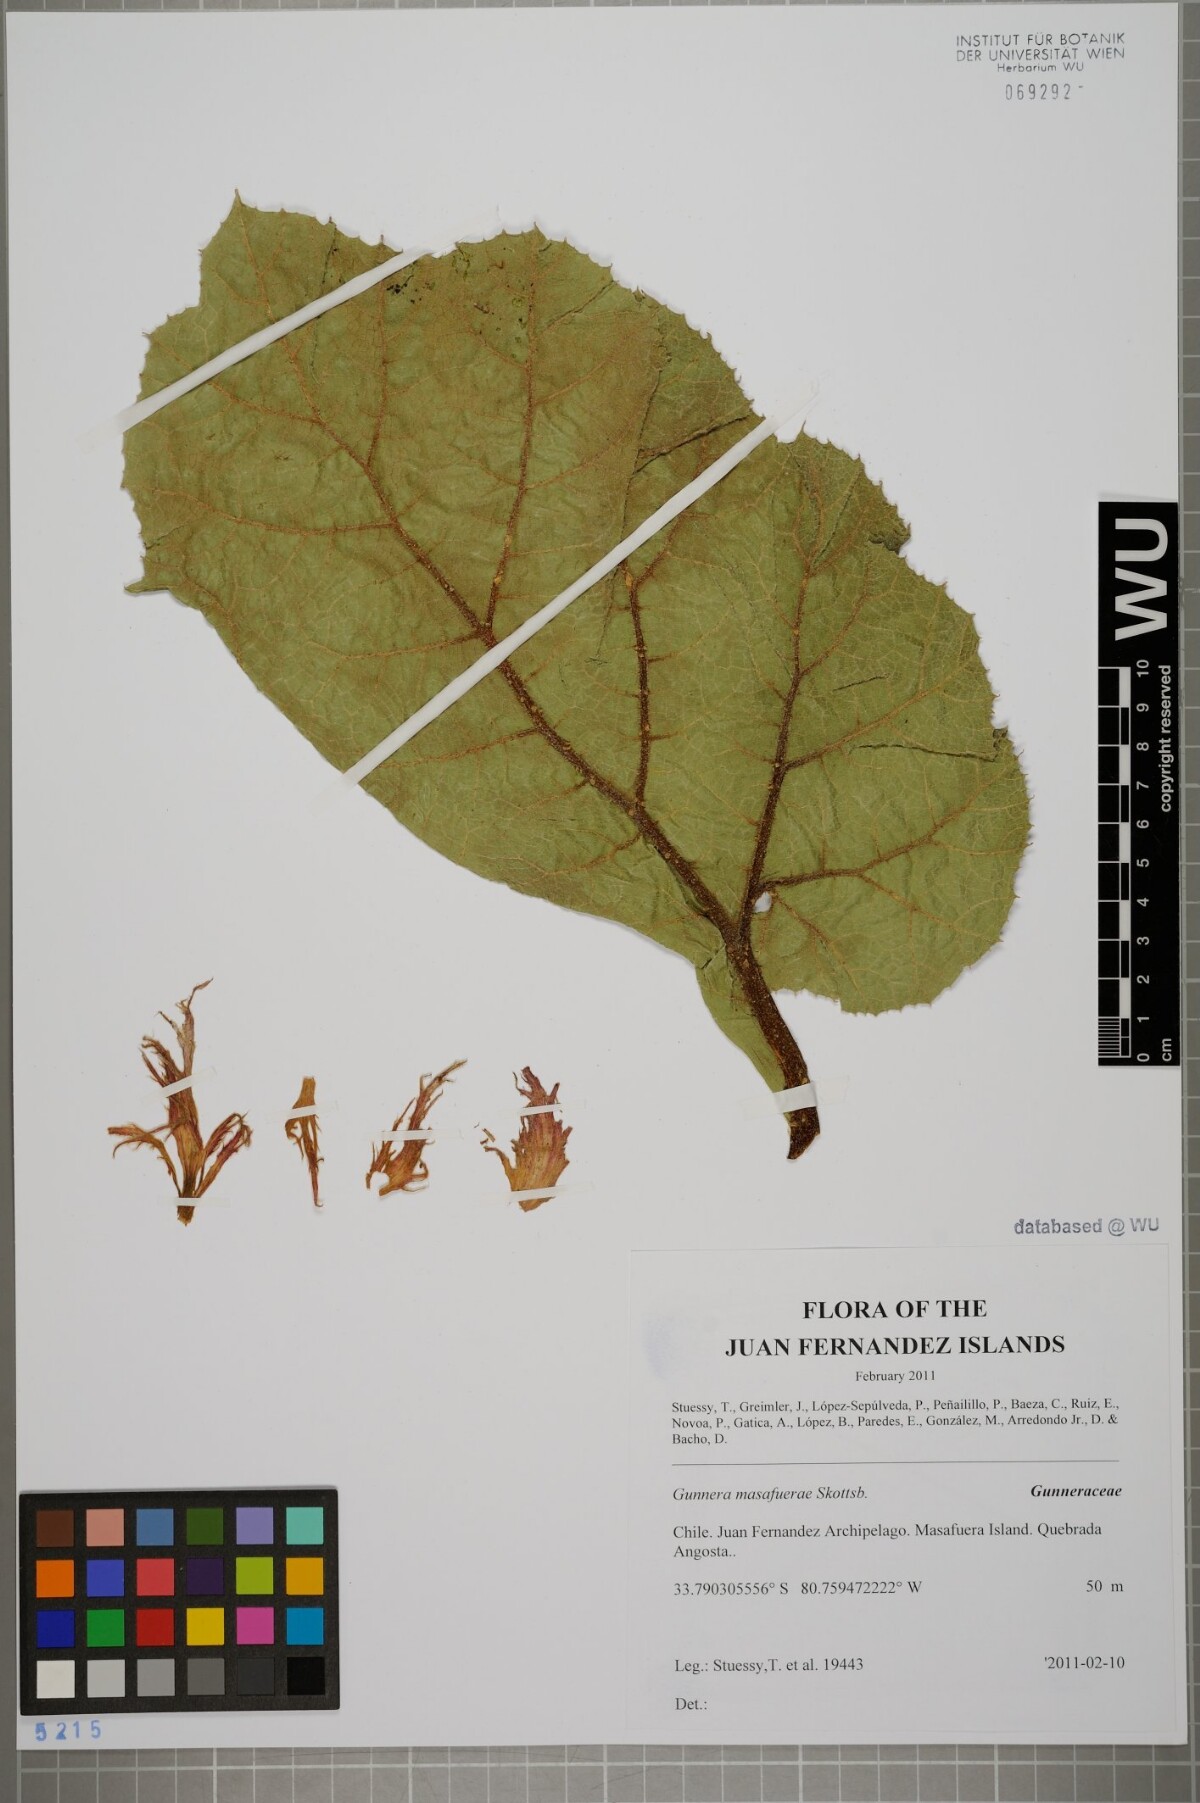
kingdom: Plantae
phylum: Tracheophyta
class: Magnoliopsida
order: Gunnerales
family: Gunneraceae
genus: Gunnera
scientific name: Gunnera masafuerae
